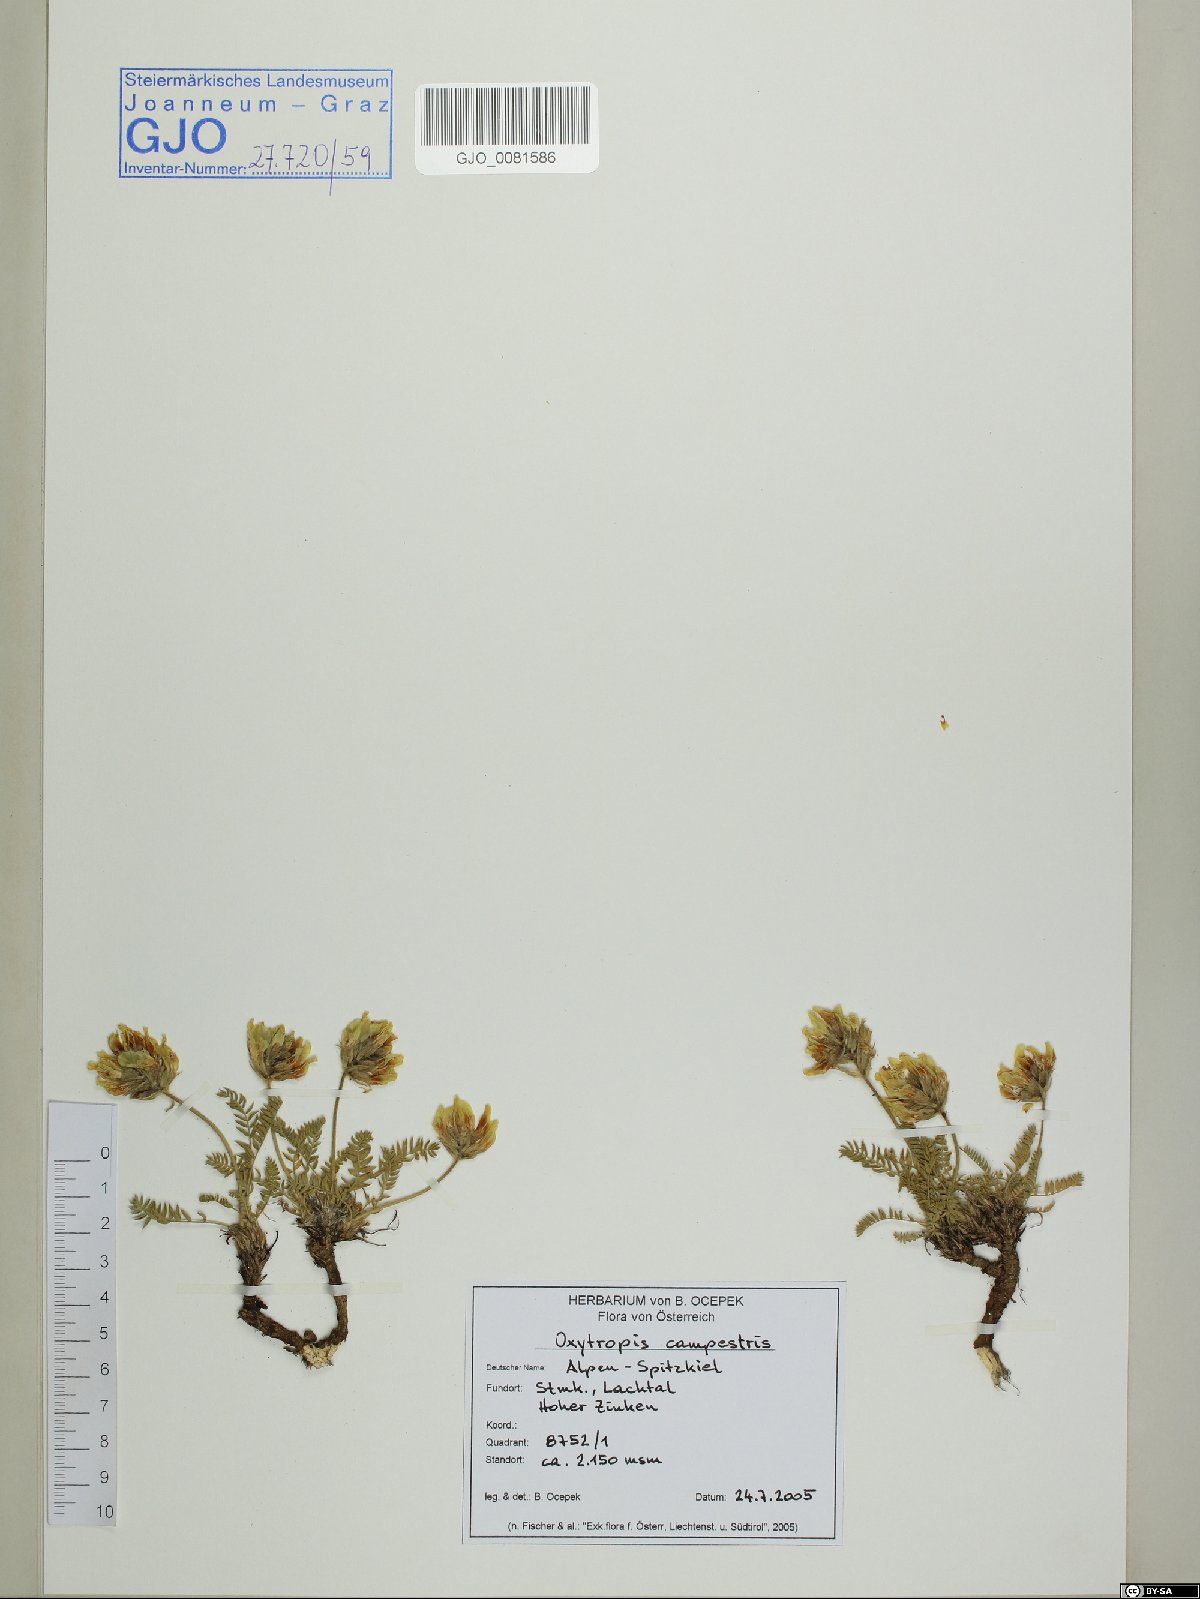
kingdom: Plantae
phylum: Tracheophyta
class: Magnoliopsida
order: Fabales
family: Fabaceae
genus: Oxytropis
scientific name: Oxytropis campestris
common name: Field locoweed
